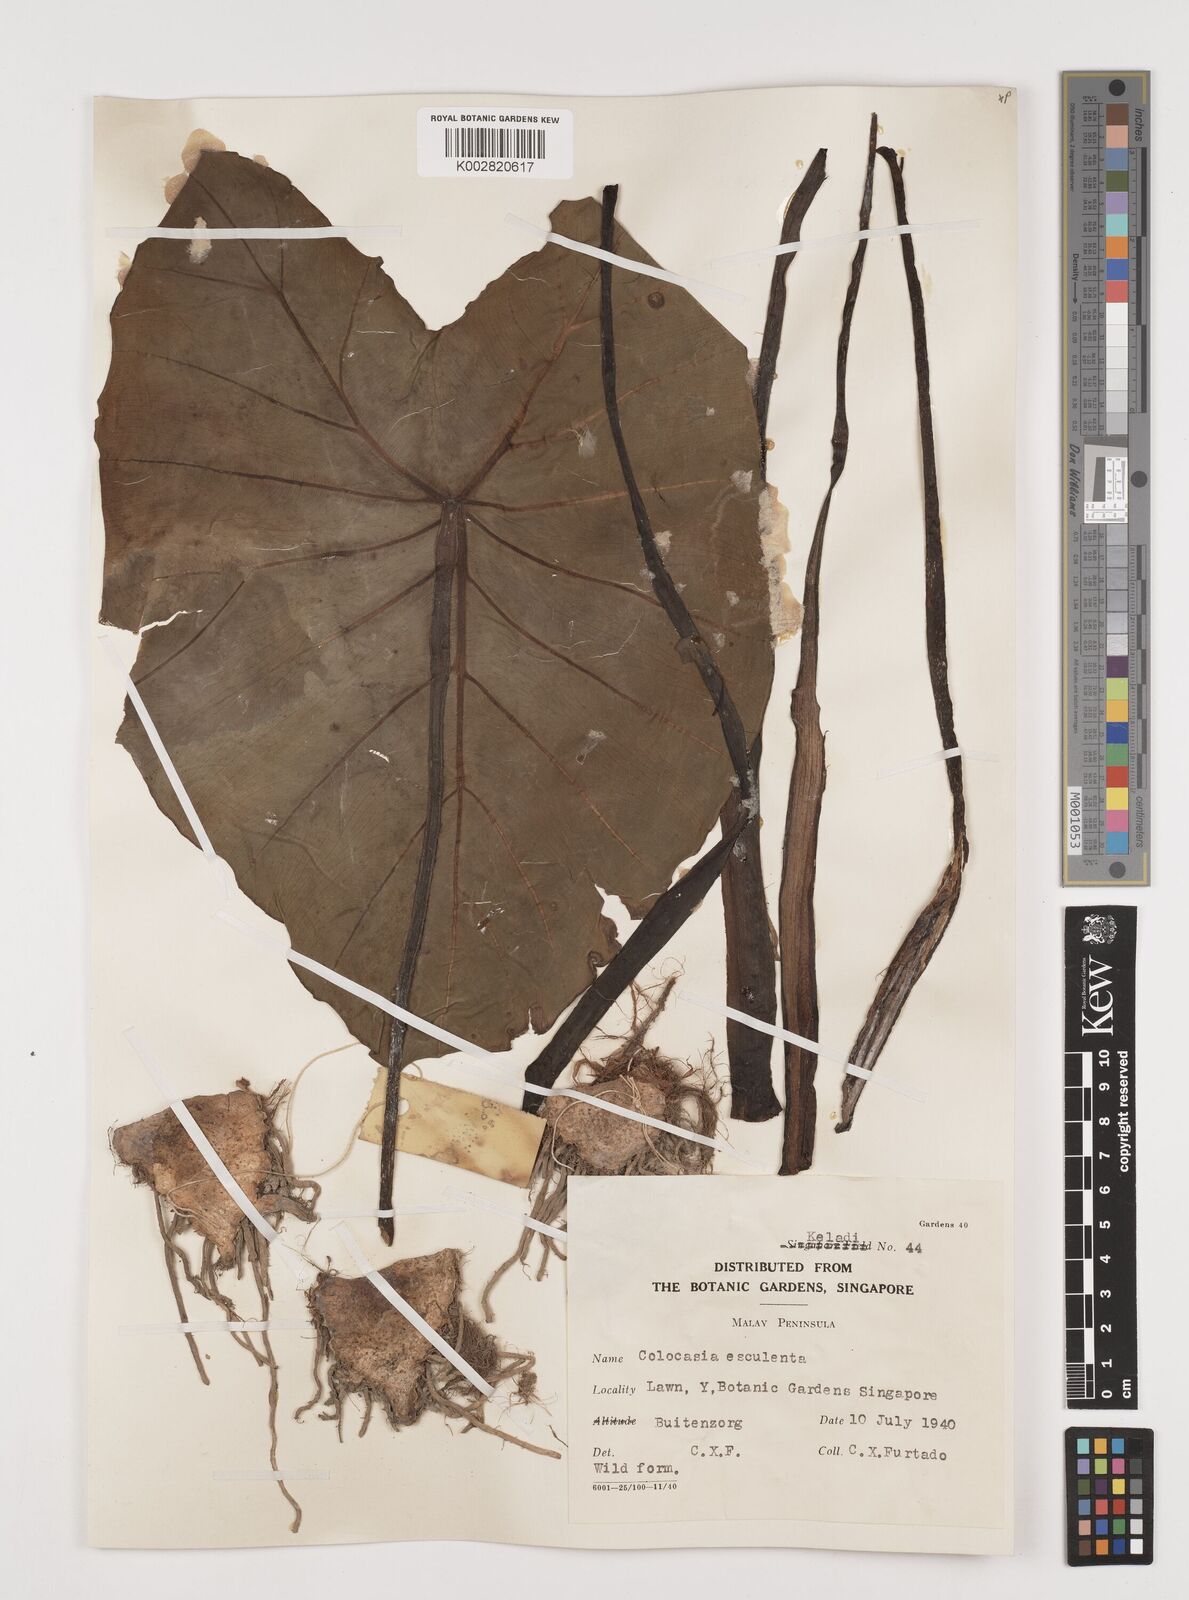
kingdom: Plantae
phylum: Tracheophyta
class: Liliopsida
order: Alismatales
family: Araceae
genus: Colocasia
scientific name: Colocasia esculenta
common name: Taro
